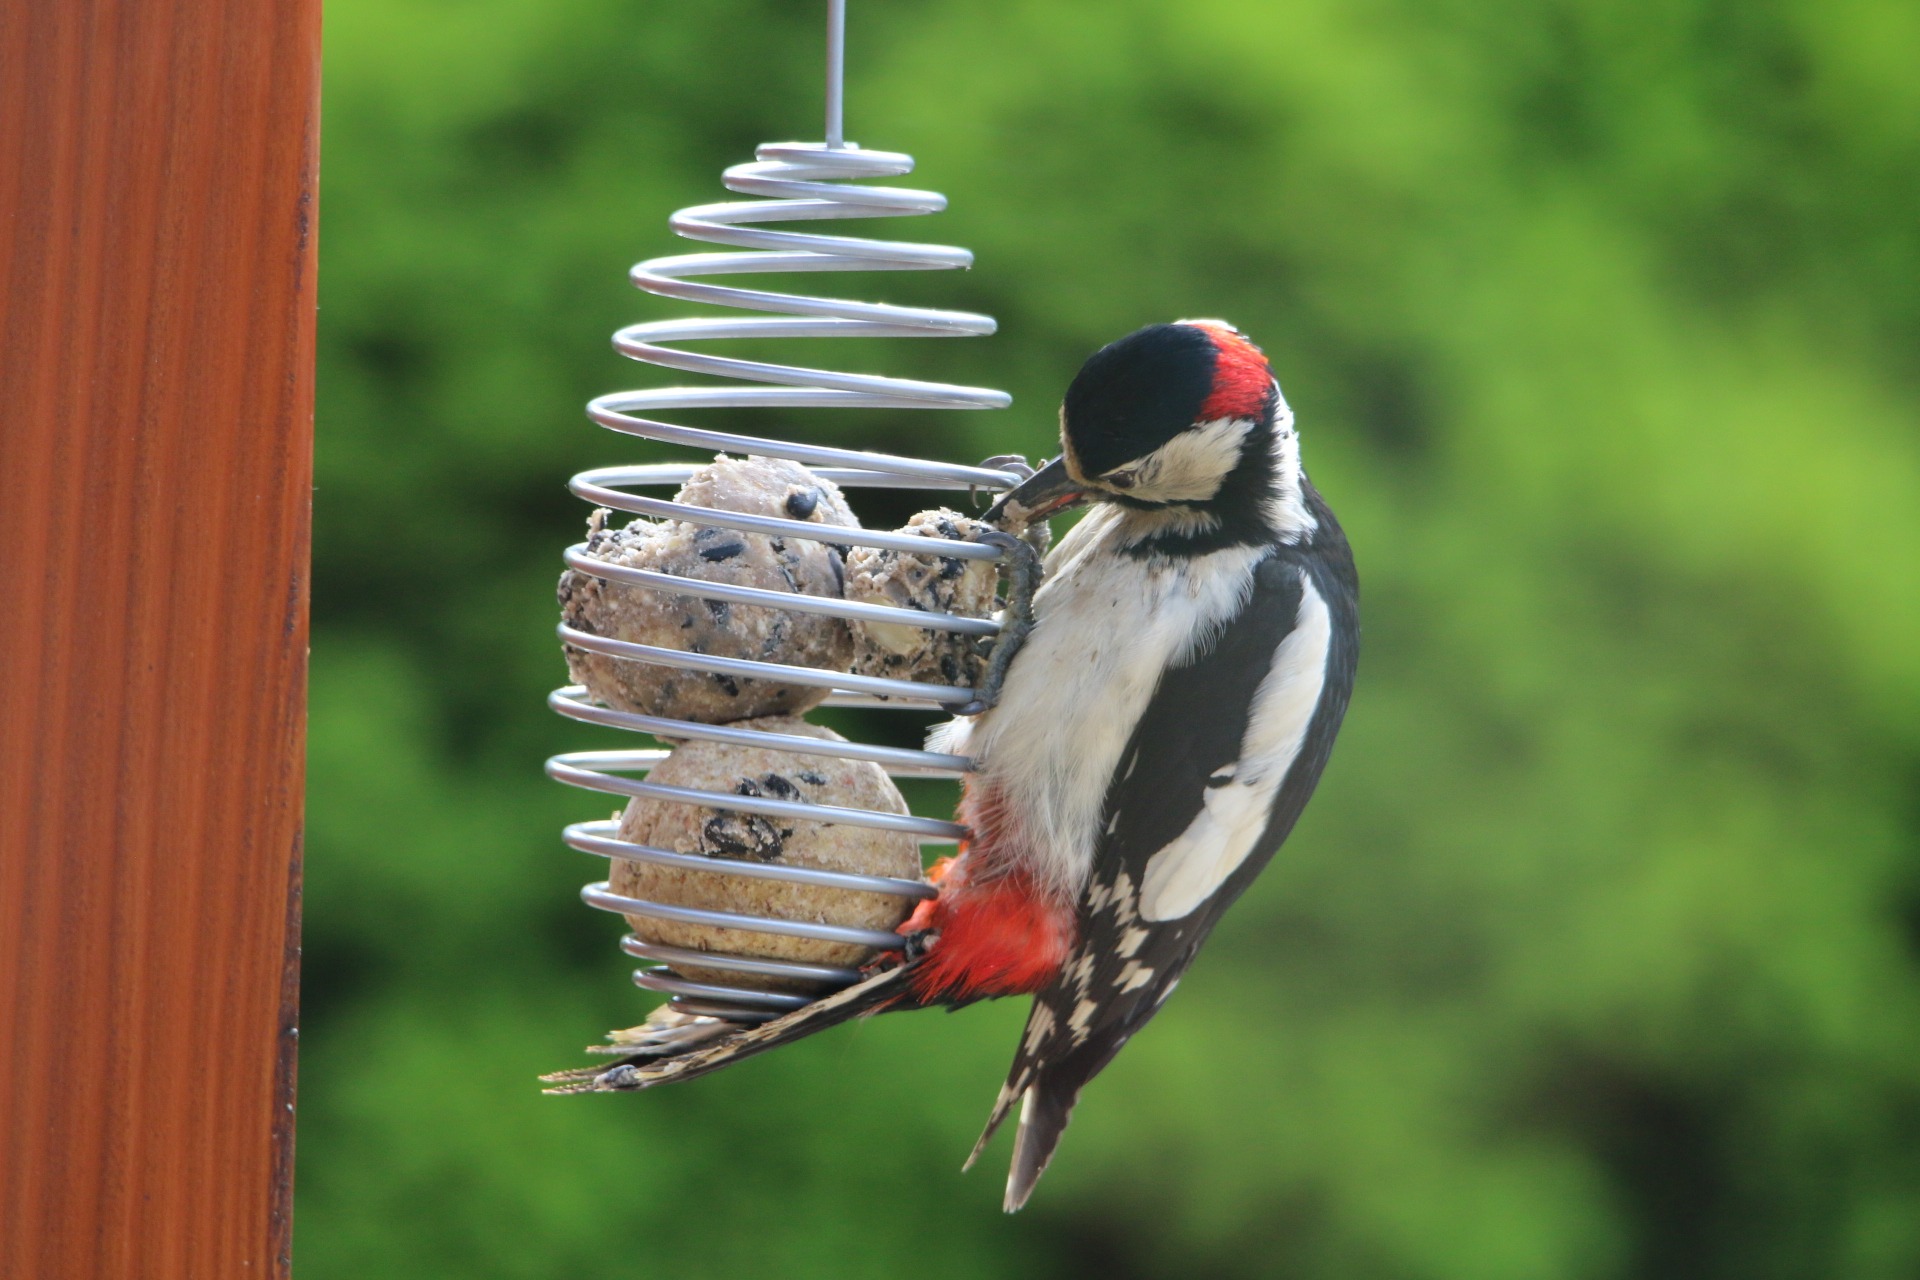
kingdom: Animalia
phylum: Chordata
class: Aves
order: Piciformes
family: Picidae
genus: Dendrocopos
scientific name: Dendrocopos major
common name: Stor flagspætte
